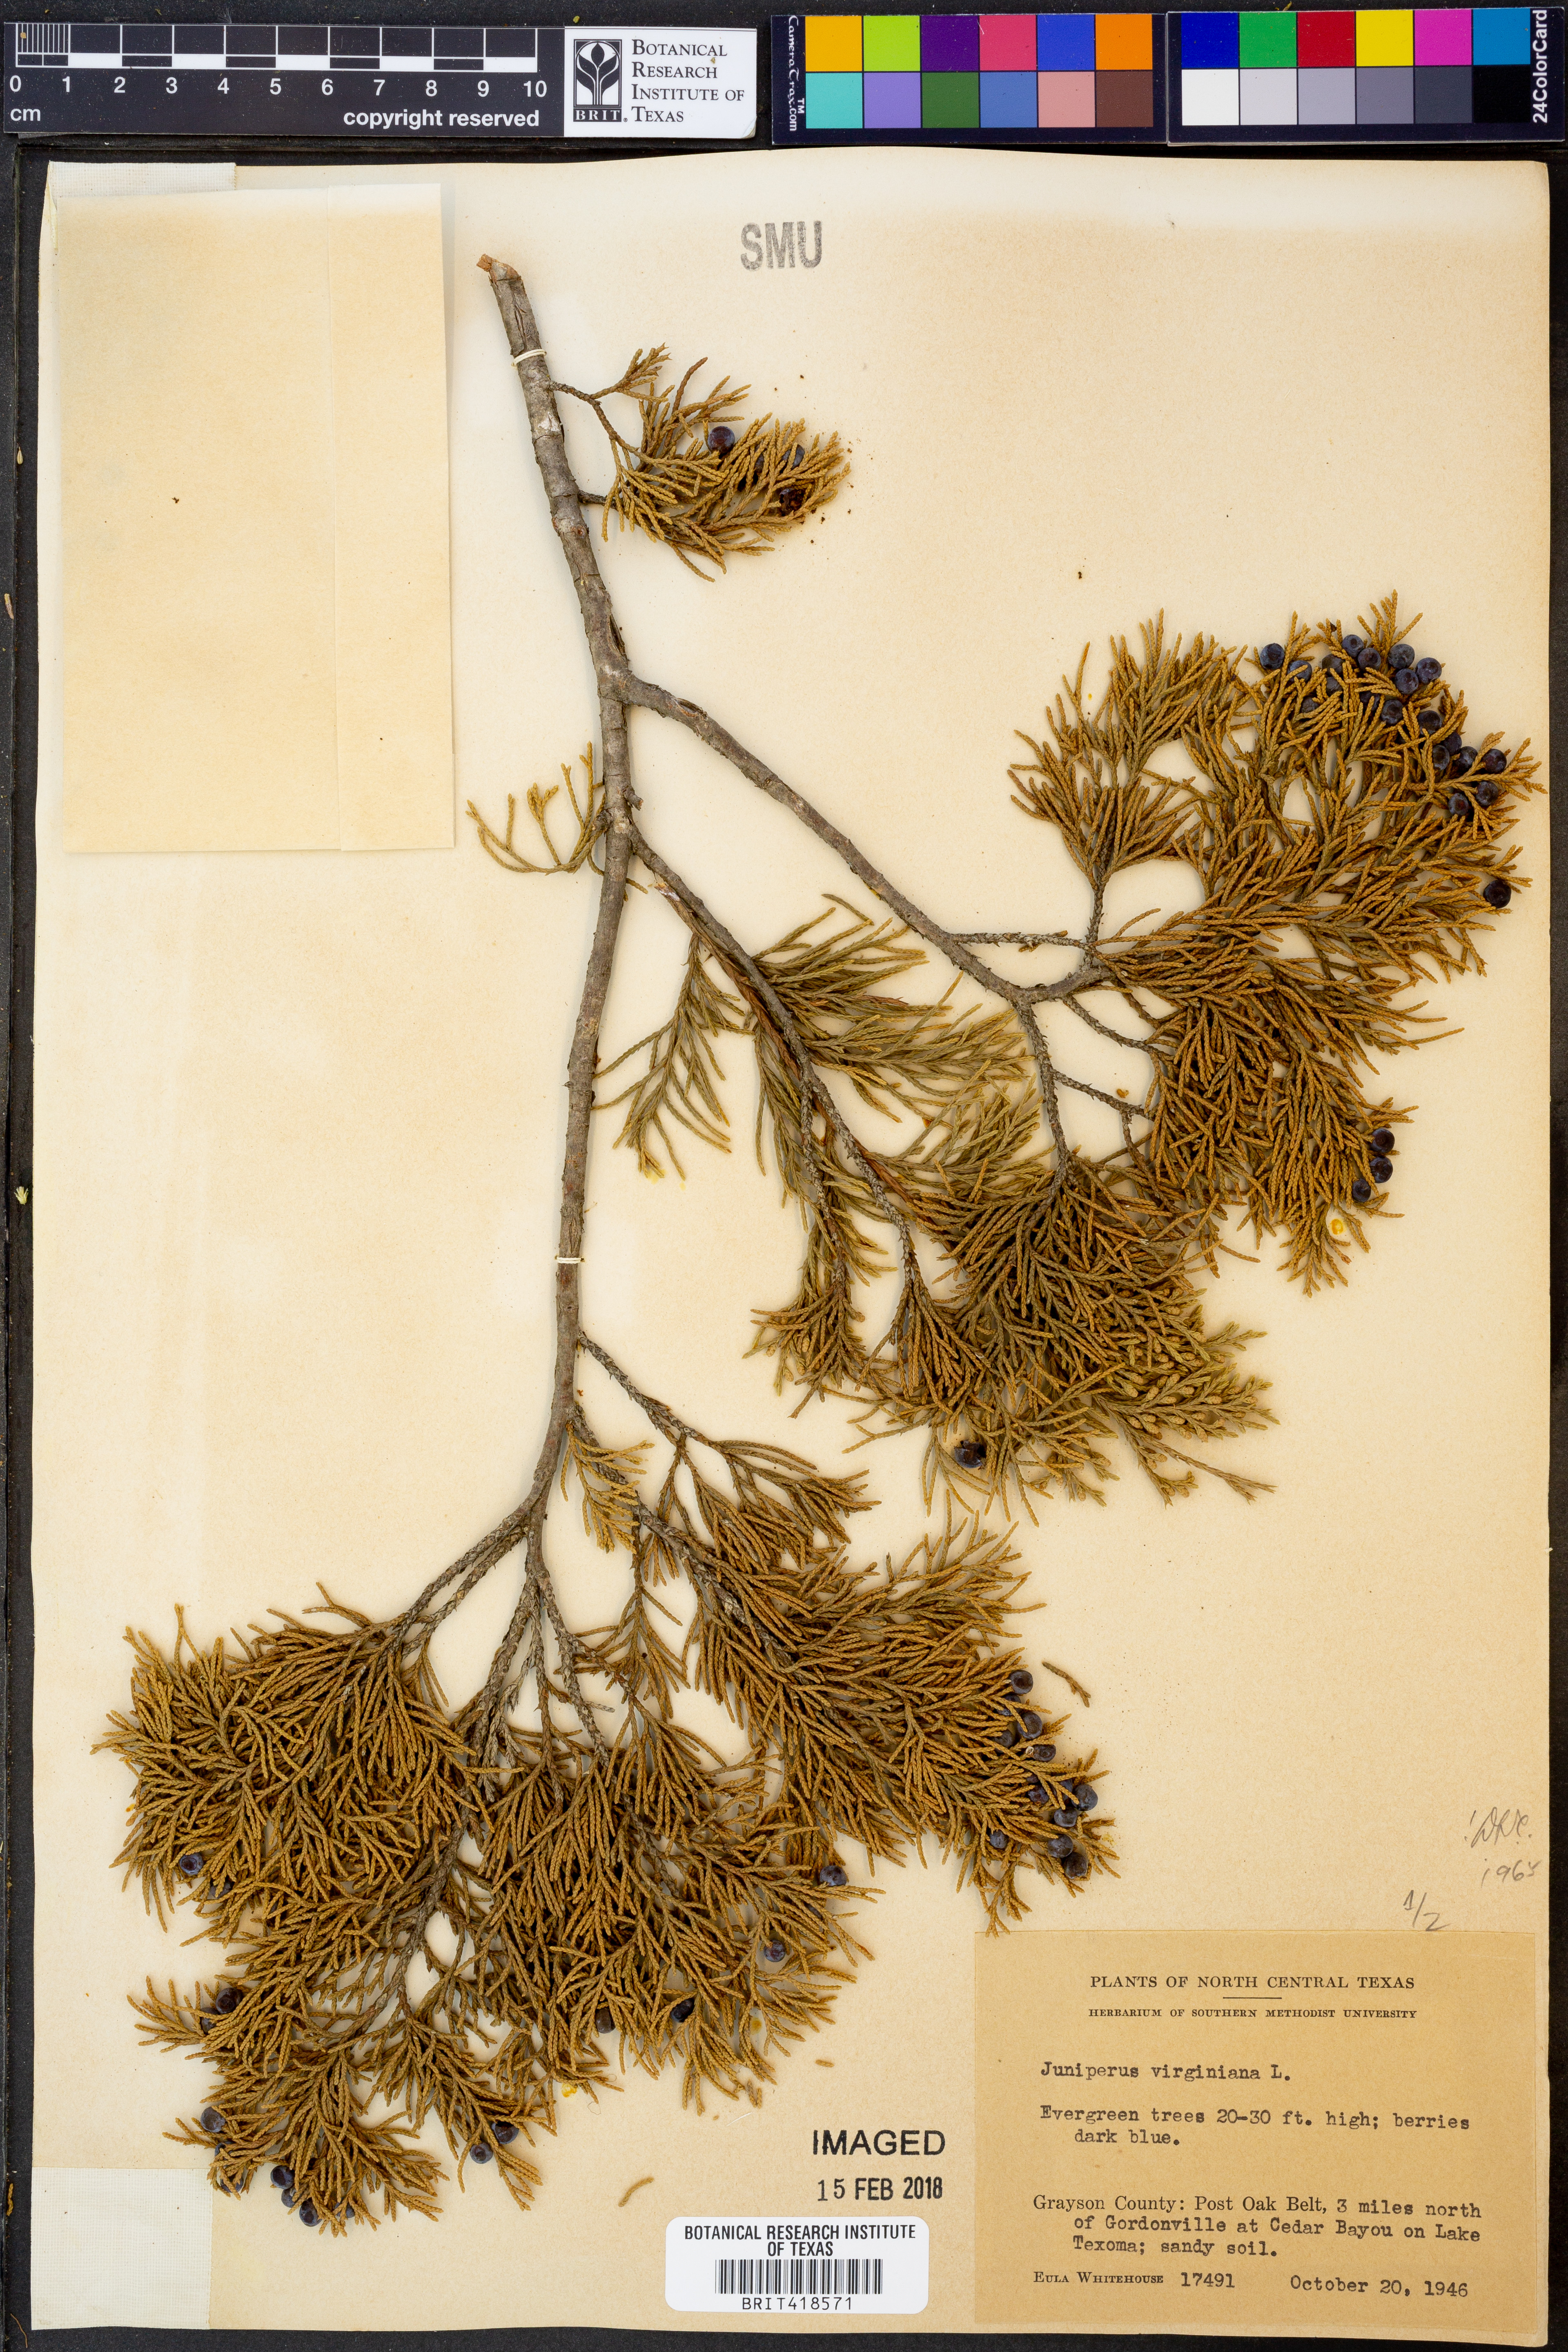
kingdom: Plantae
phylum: Tracheophyta
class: Pinopsida
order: Pinales
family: Cupressaceae
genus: Juniperus
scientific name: Juniperus virginiana
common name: Red juniper
